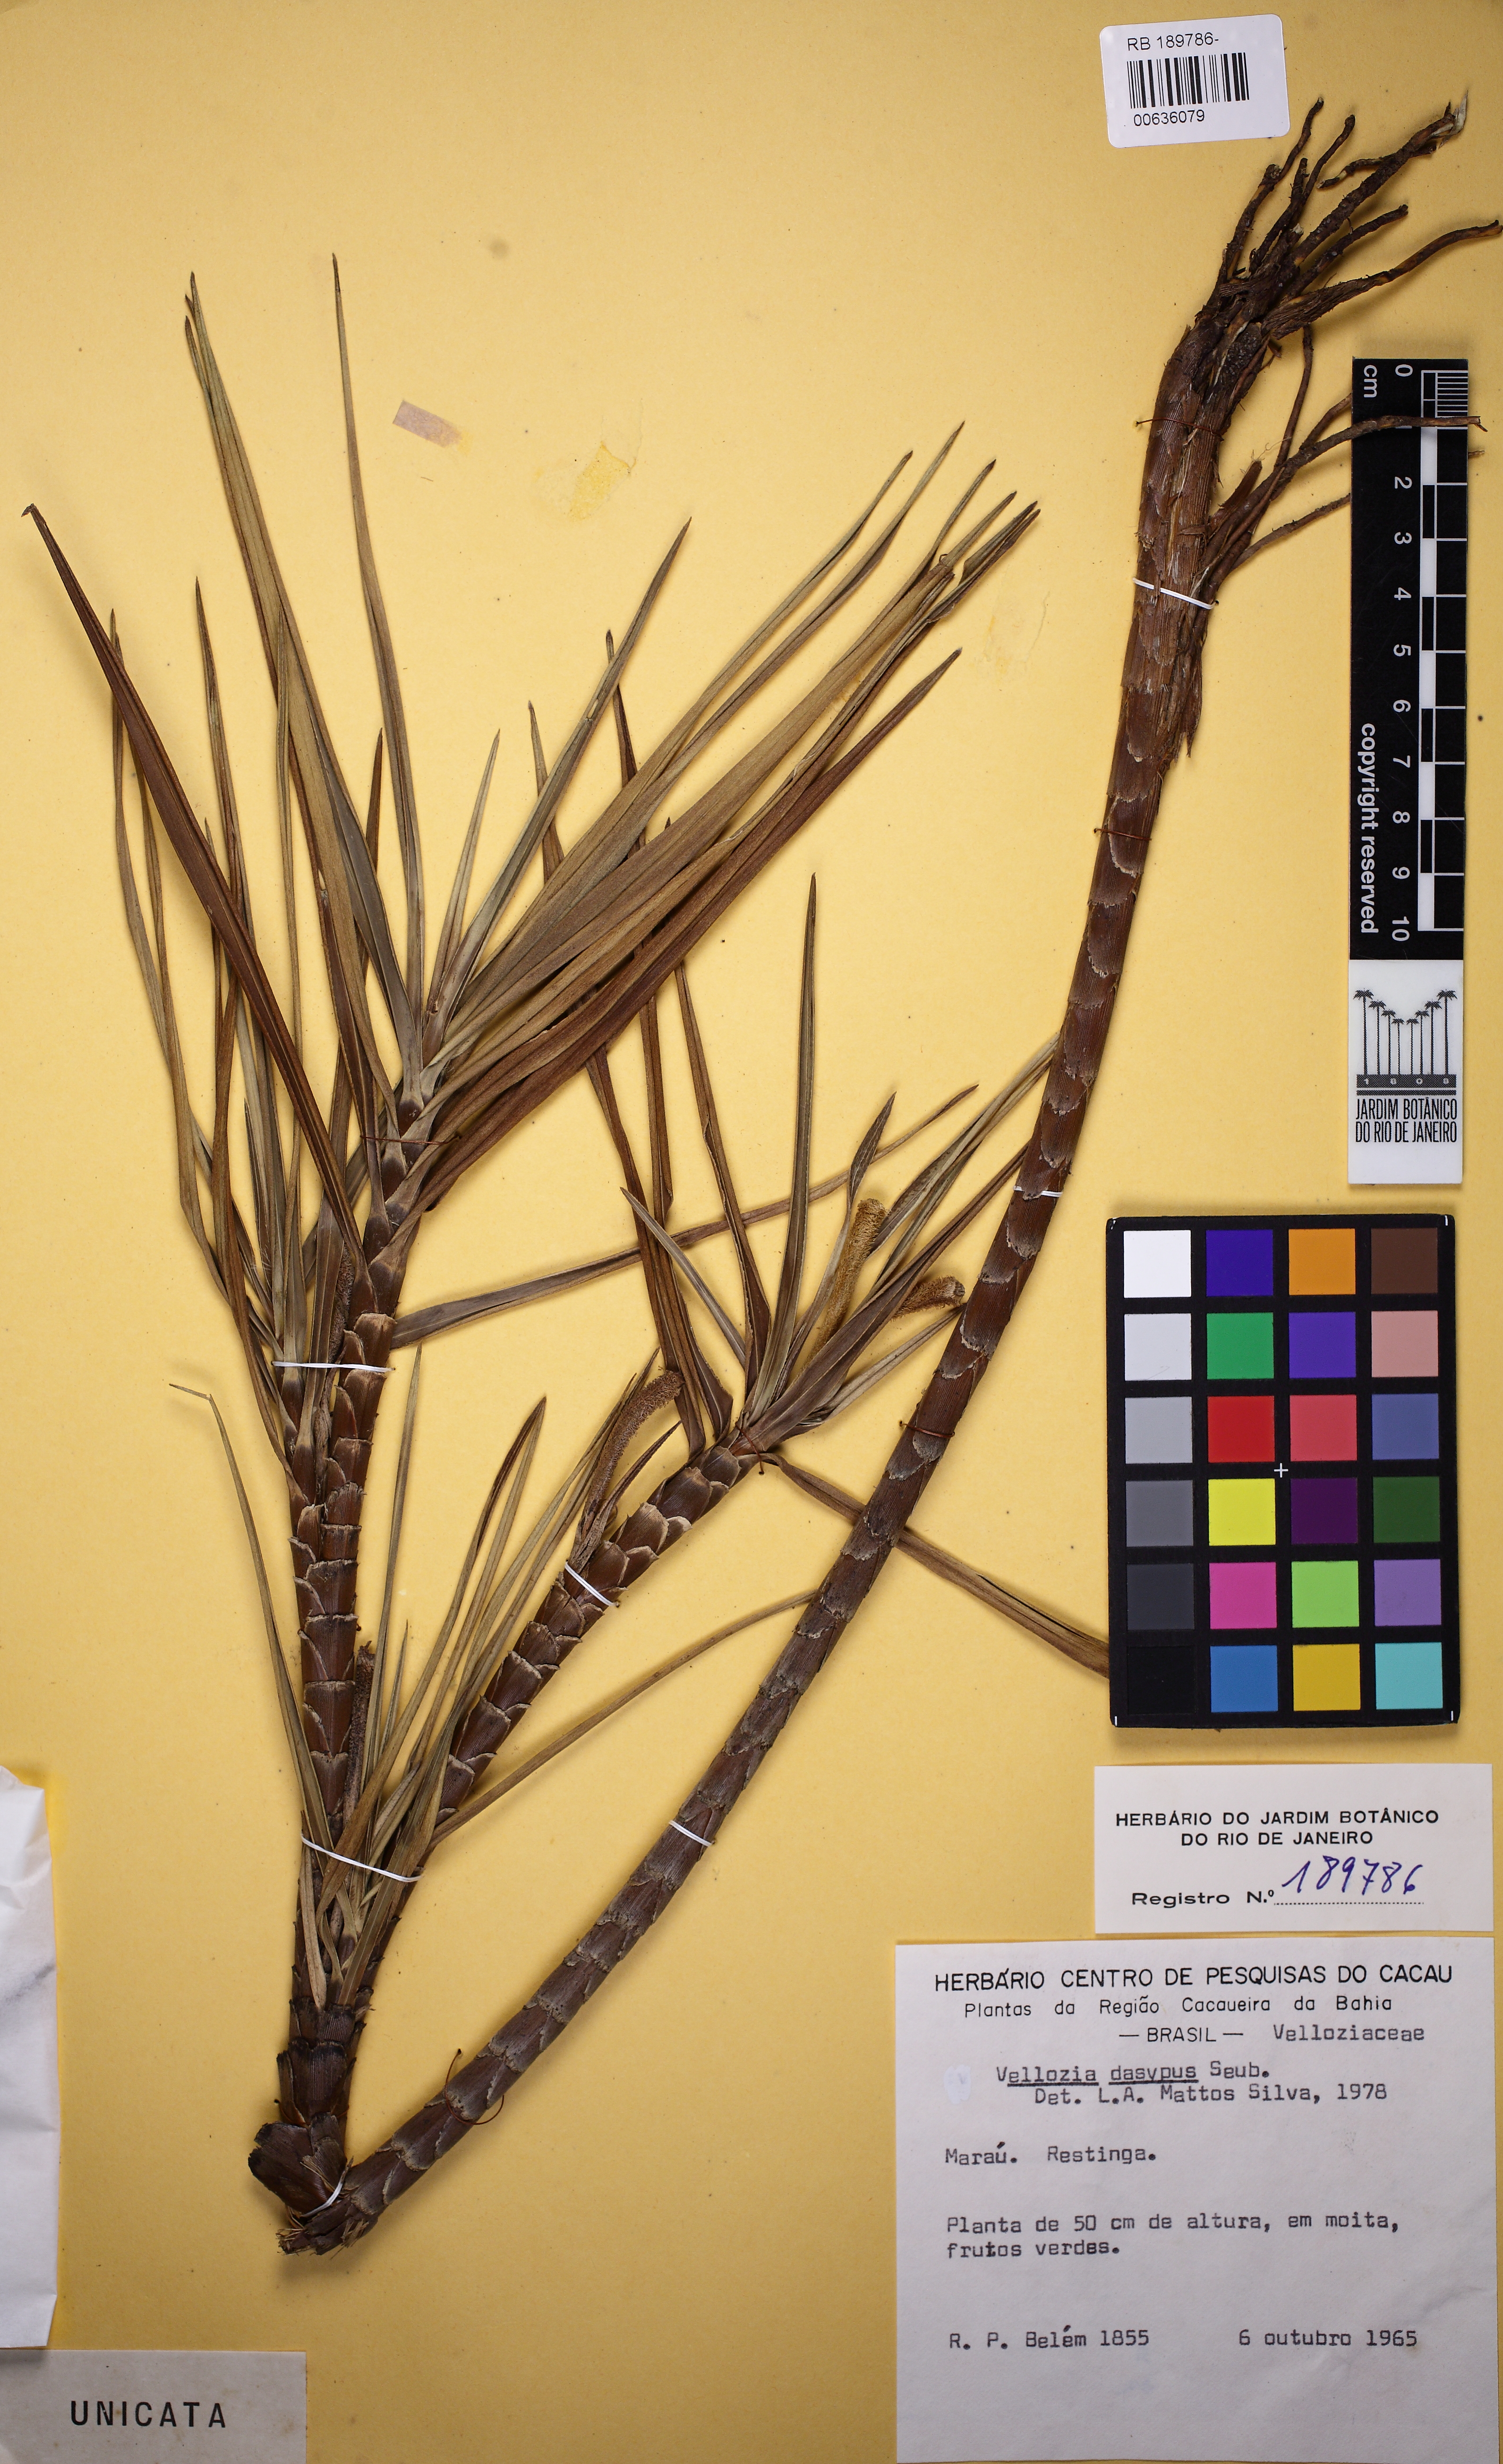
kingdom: Plantae
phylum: Tracheophyta
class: Liliopsida
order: Pandanales
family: Velloziaceae
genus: Vellozia
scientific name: Vellozia dasypus
